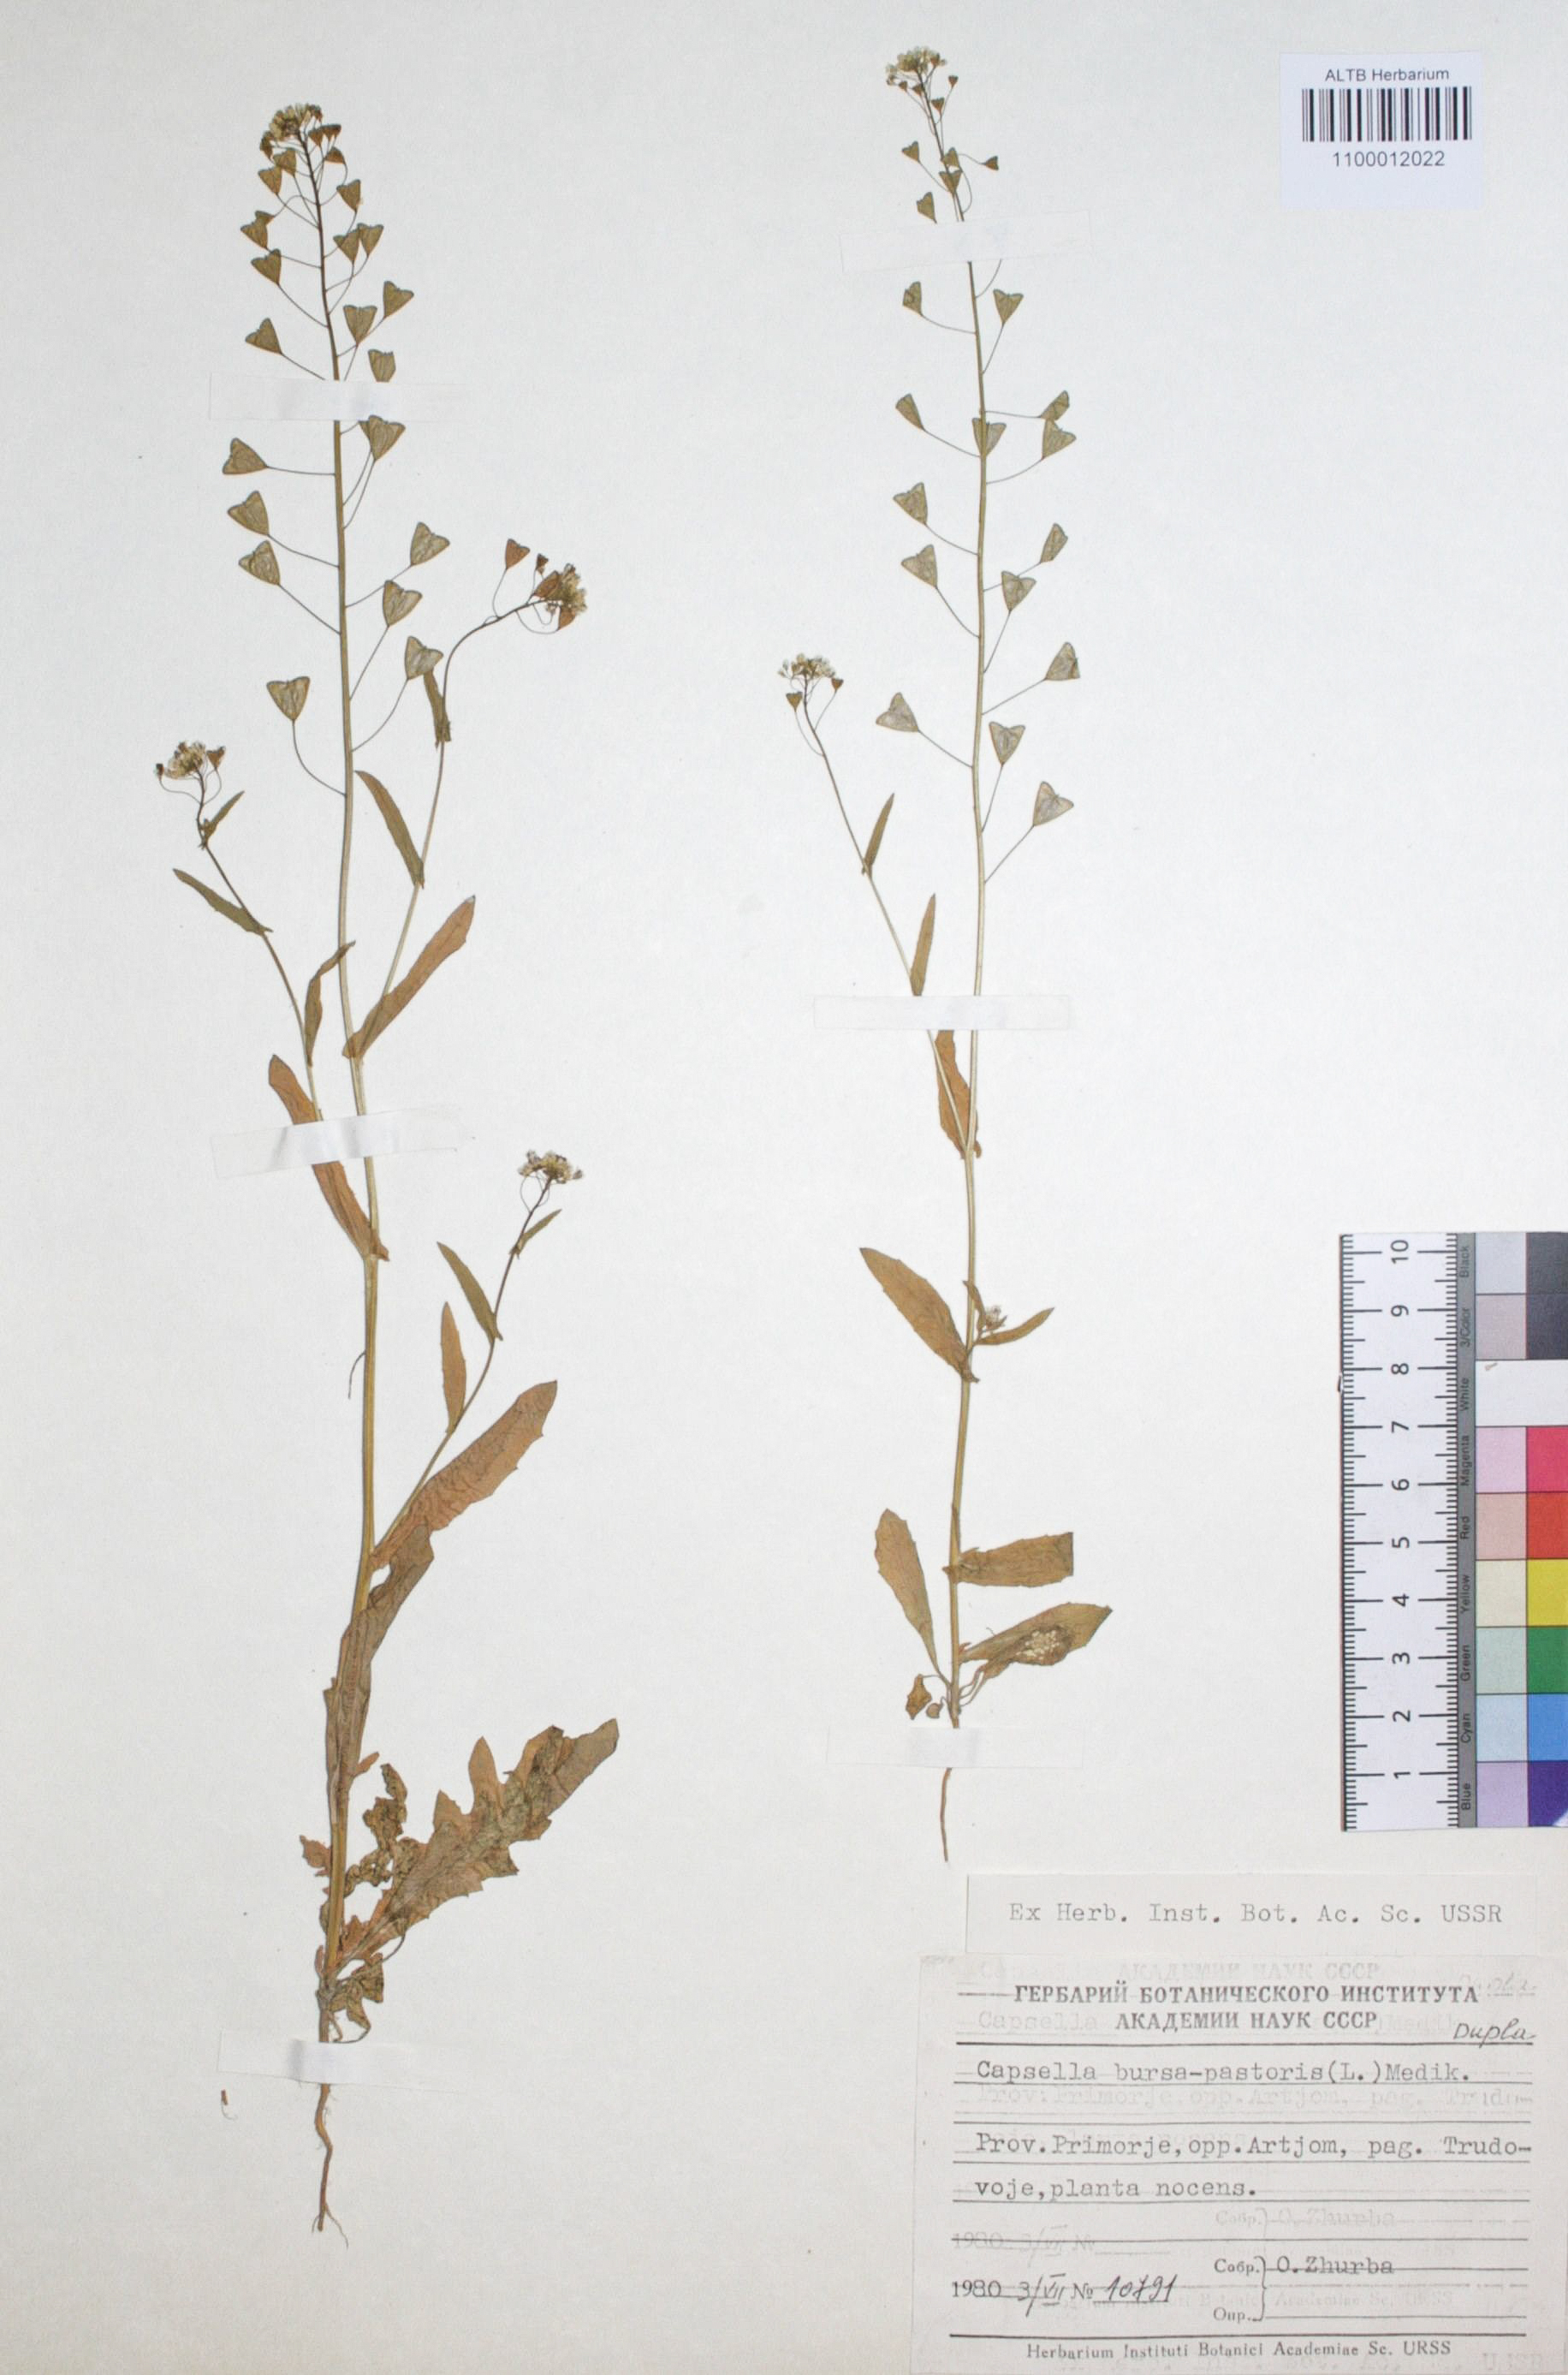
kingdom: Plantae
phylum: Tracheophyta
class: Magnoliopsida
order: Brassicales
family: Brassicaceae
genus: Capsella
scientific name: Capsella bursa-pastoris
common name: Shepherd's purse
